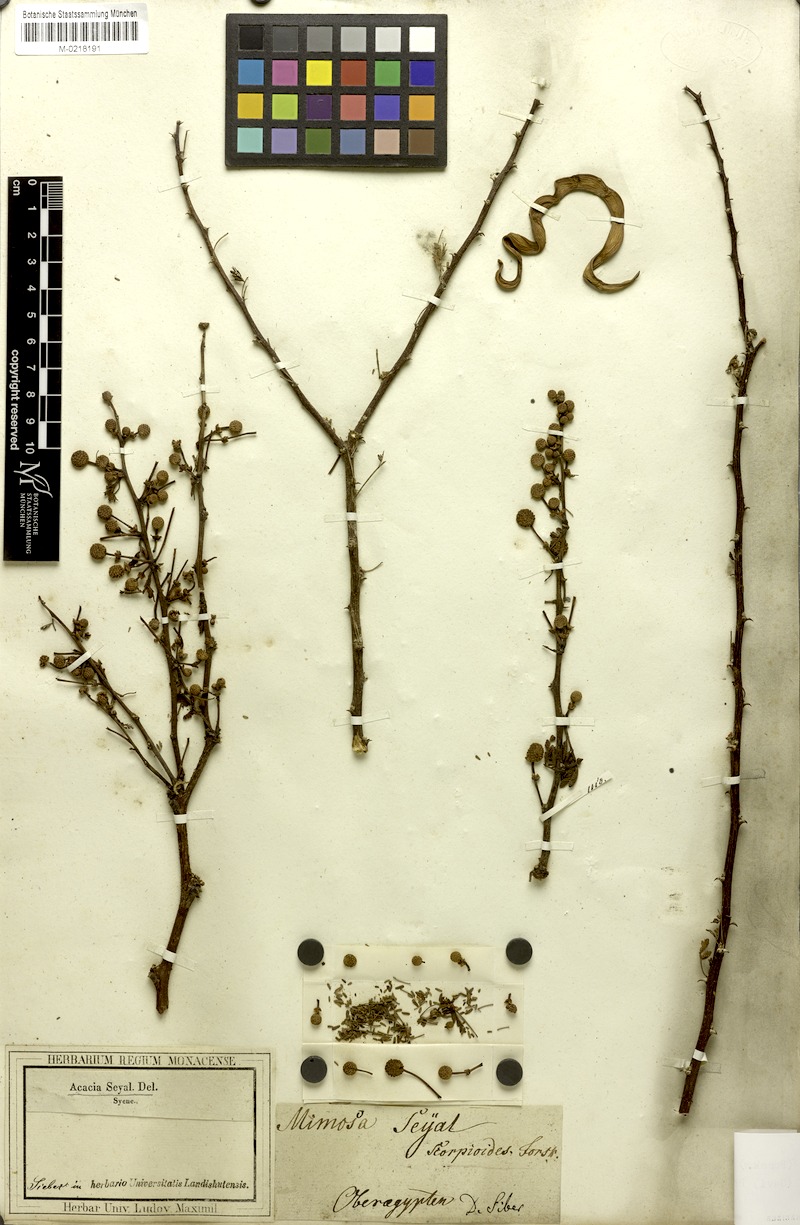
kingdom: Plantae
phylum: Tracheophyta
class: Magnoliopsida
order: Fabales
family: Fabaceae
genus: Vachellia
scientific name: Vachellia tortilis
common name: Umbrella thorn acacia
